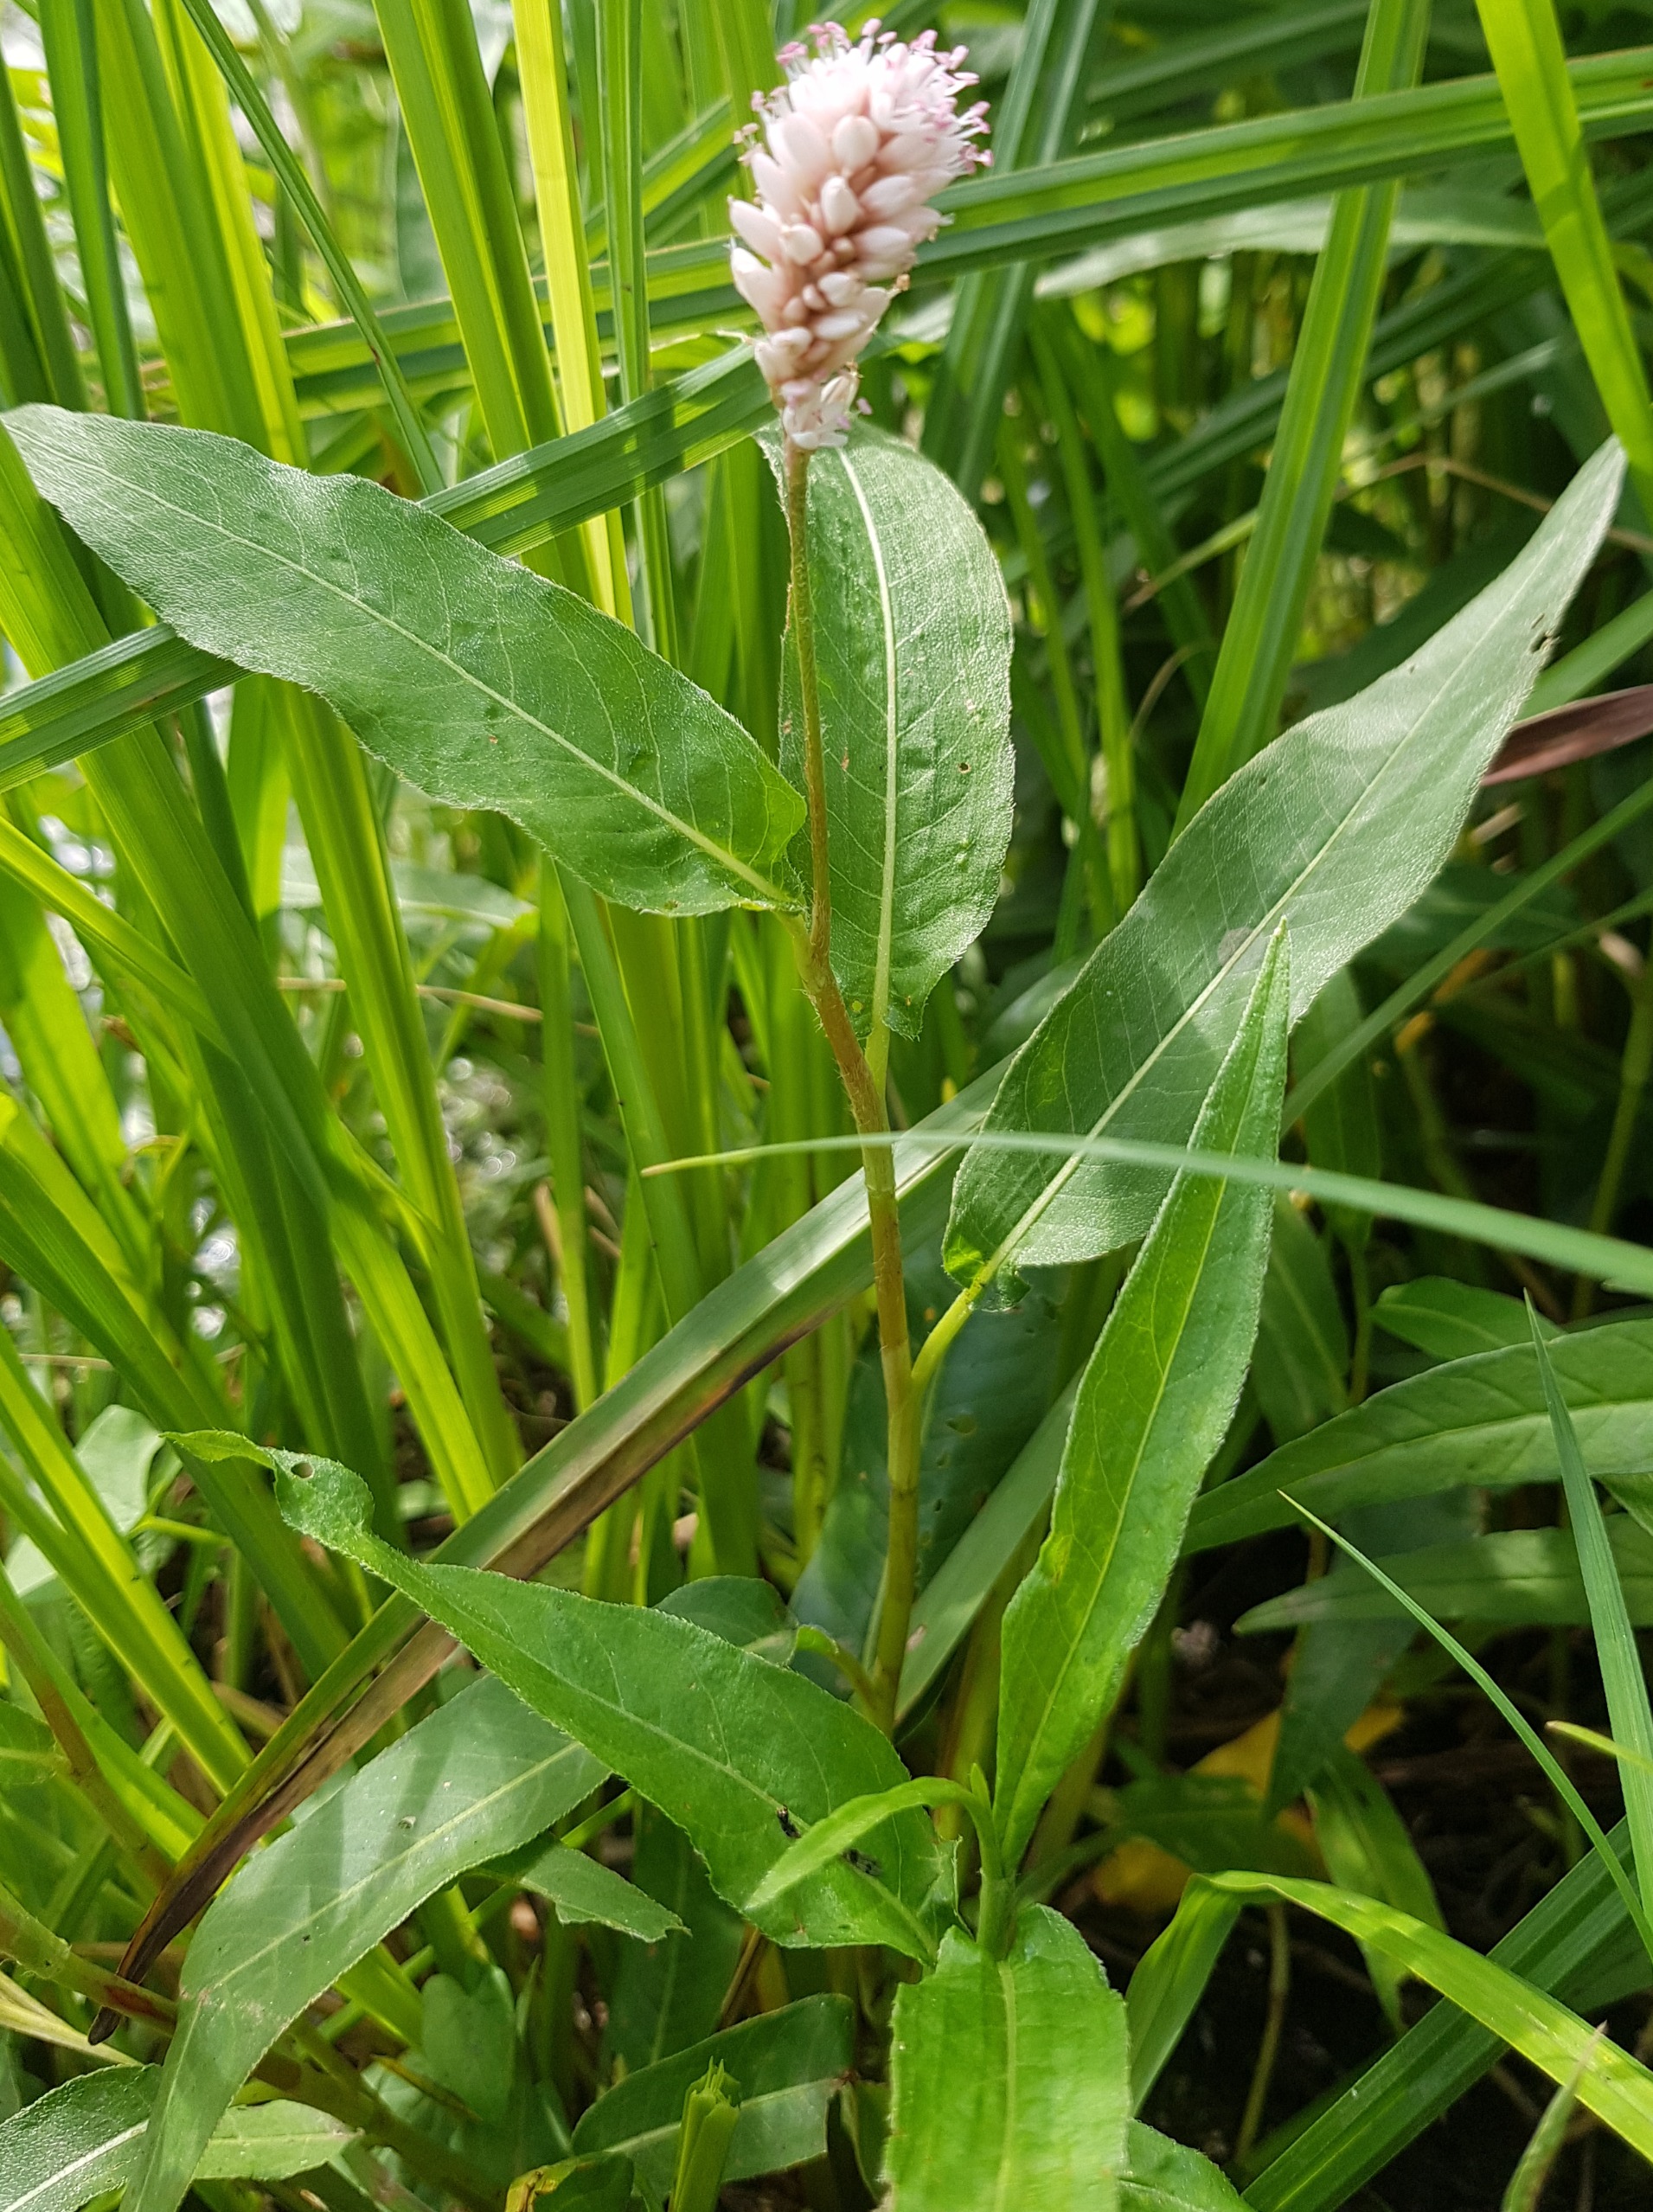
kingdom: Plantae
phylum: Tracheophyta
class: Magnoliopsida
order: Caryophyllales
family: Polygonaceae
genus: Persicaria
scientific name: Persicaria amphibia
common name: Vand-pileurt
